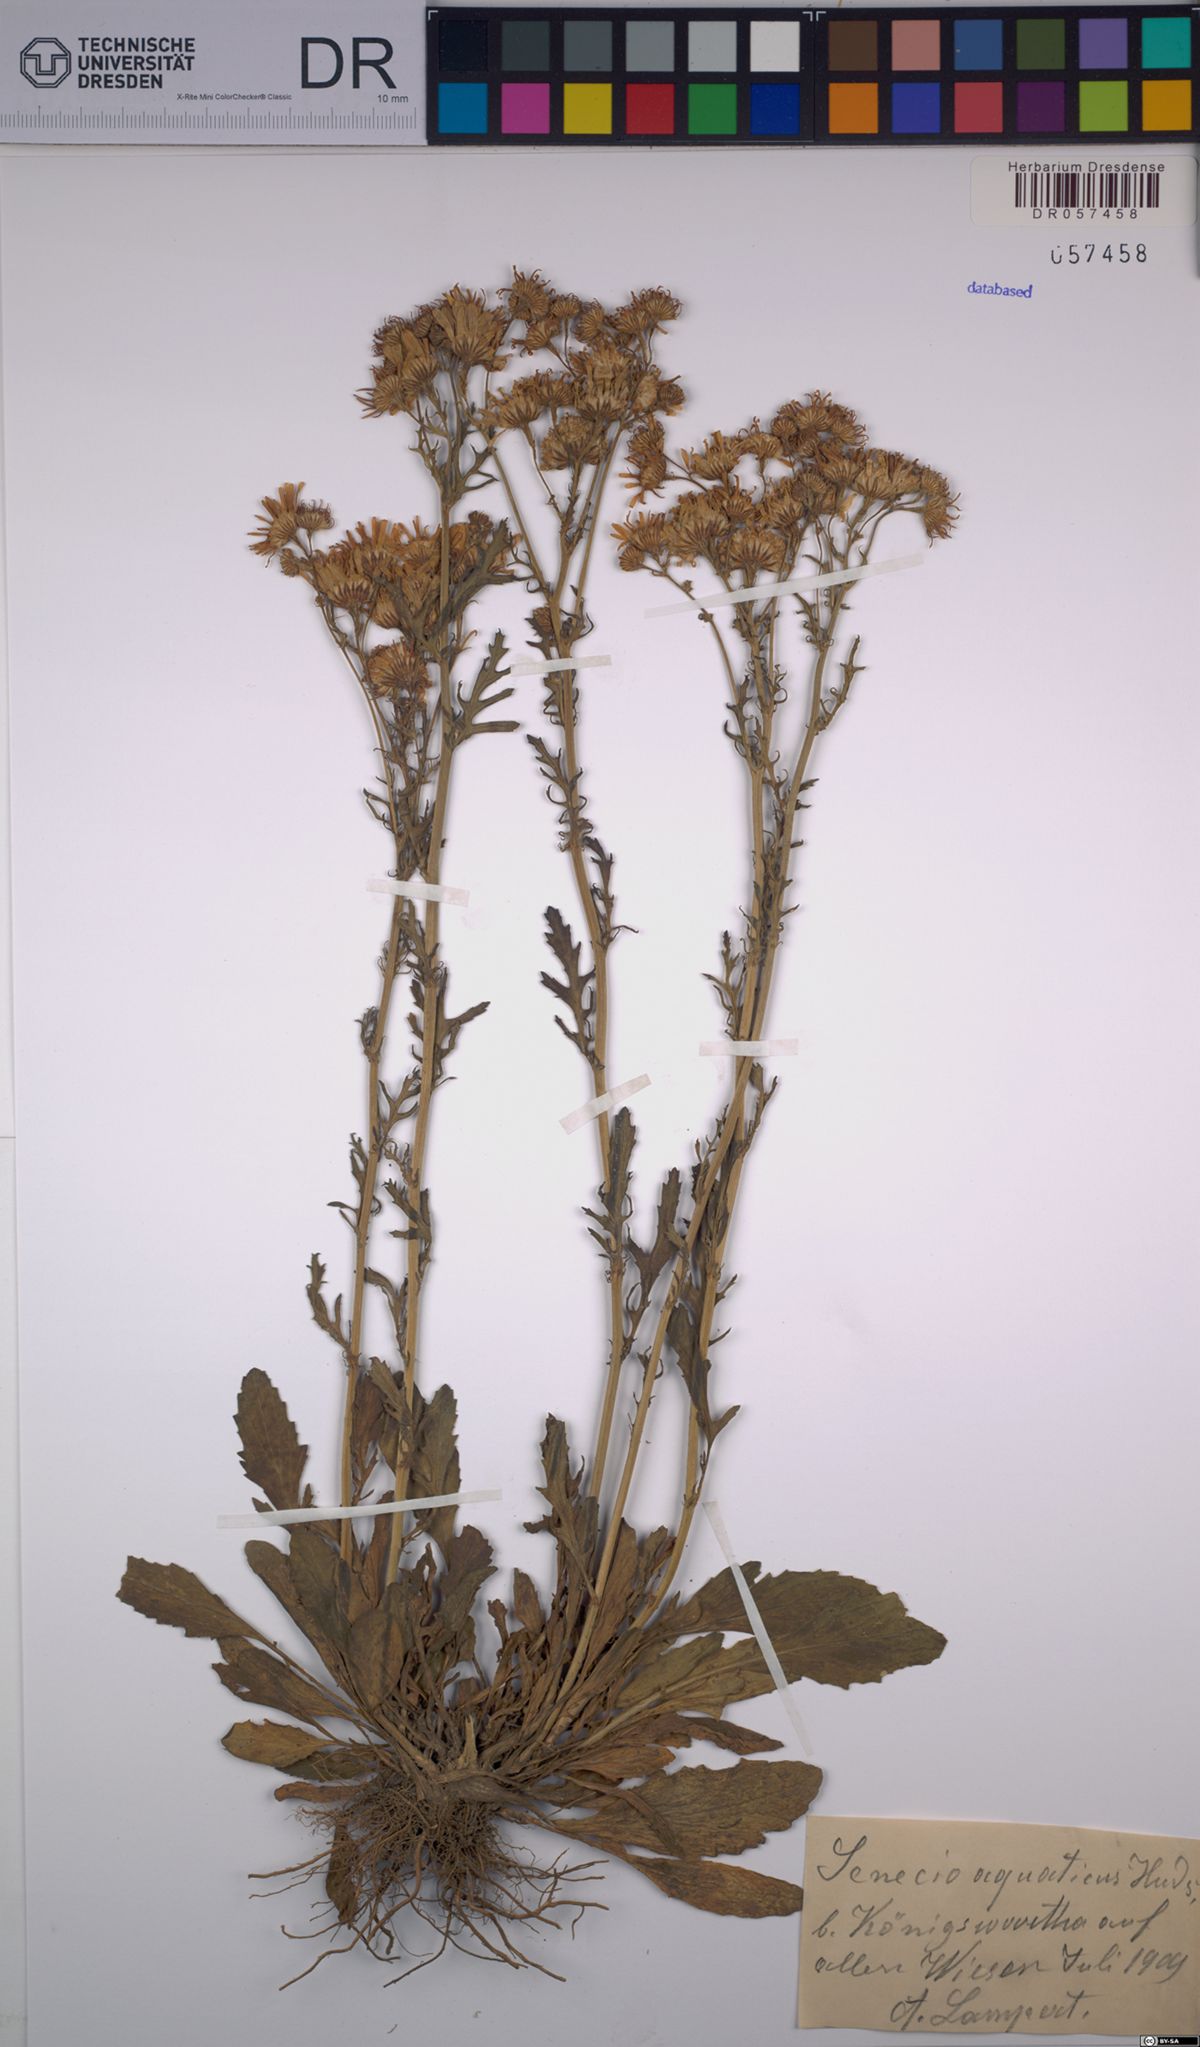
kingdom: Plantae
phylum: Tracheophyta
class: Magnoliopsida
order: Asterales
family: Asteraceae
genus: Jacobaea
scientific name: Jacobaea aquatica
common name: Water ragwort
